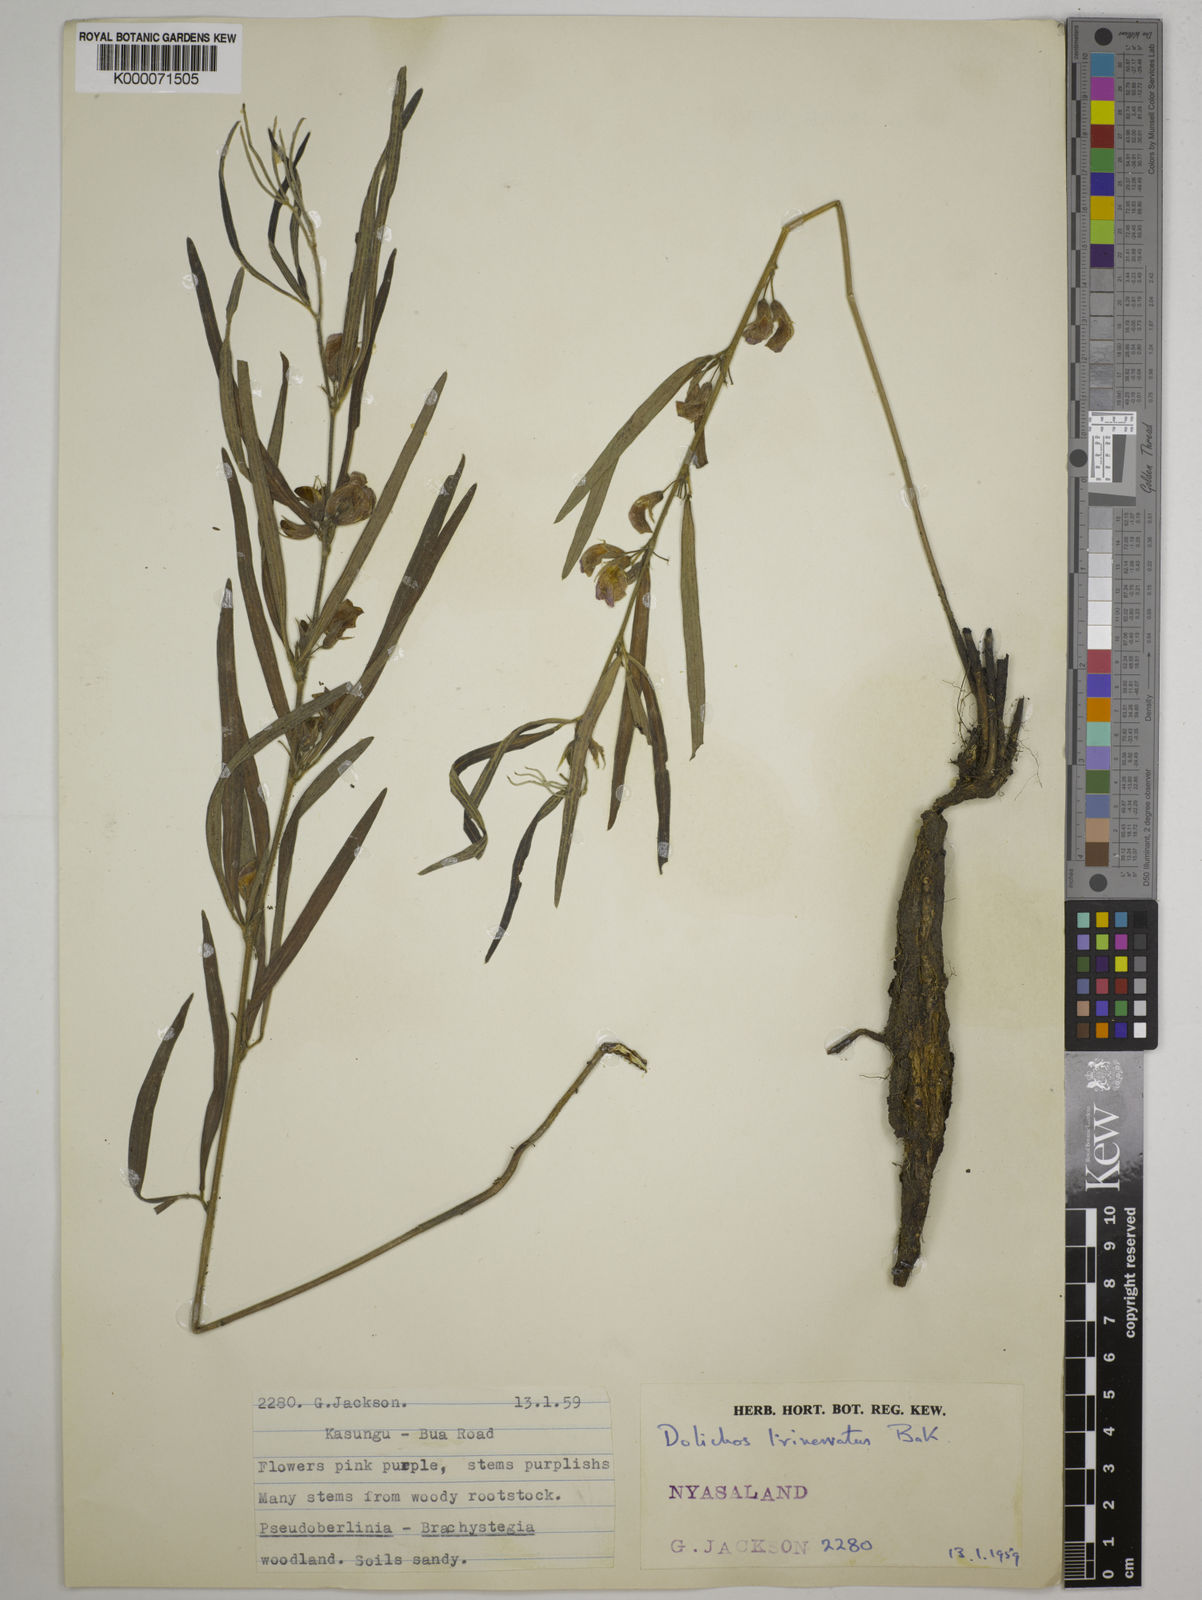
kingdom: Plantae
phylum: Tracheophyta
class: Magnoliopsida
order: Fabales
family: Fabaceae
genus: Dolichos
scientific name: Dolichos trinervatus
